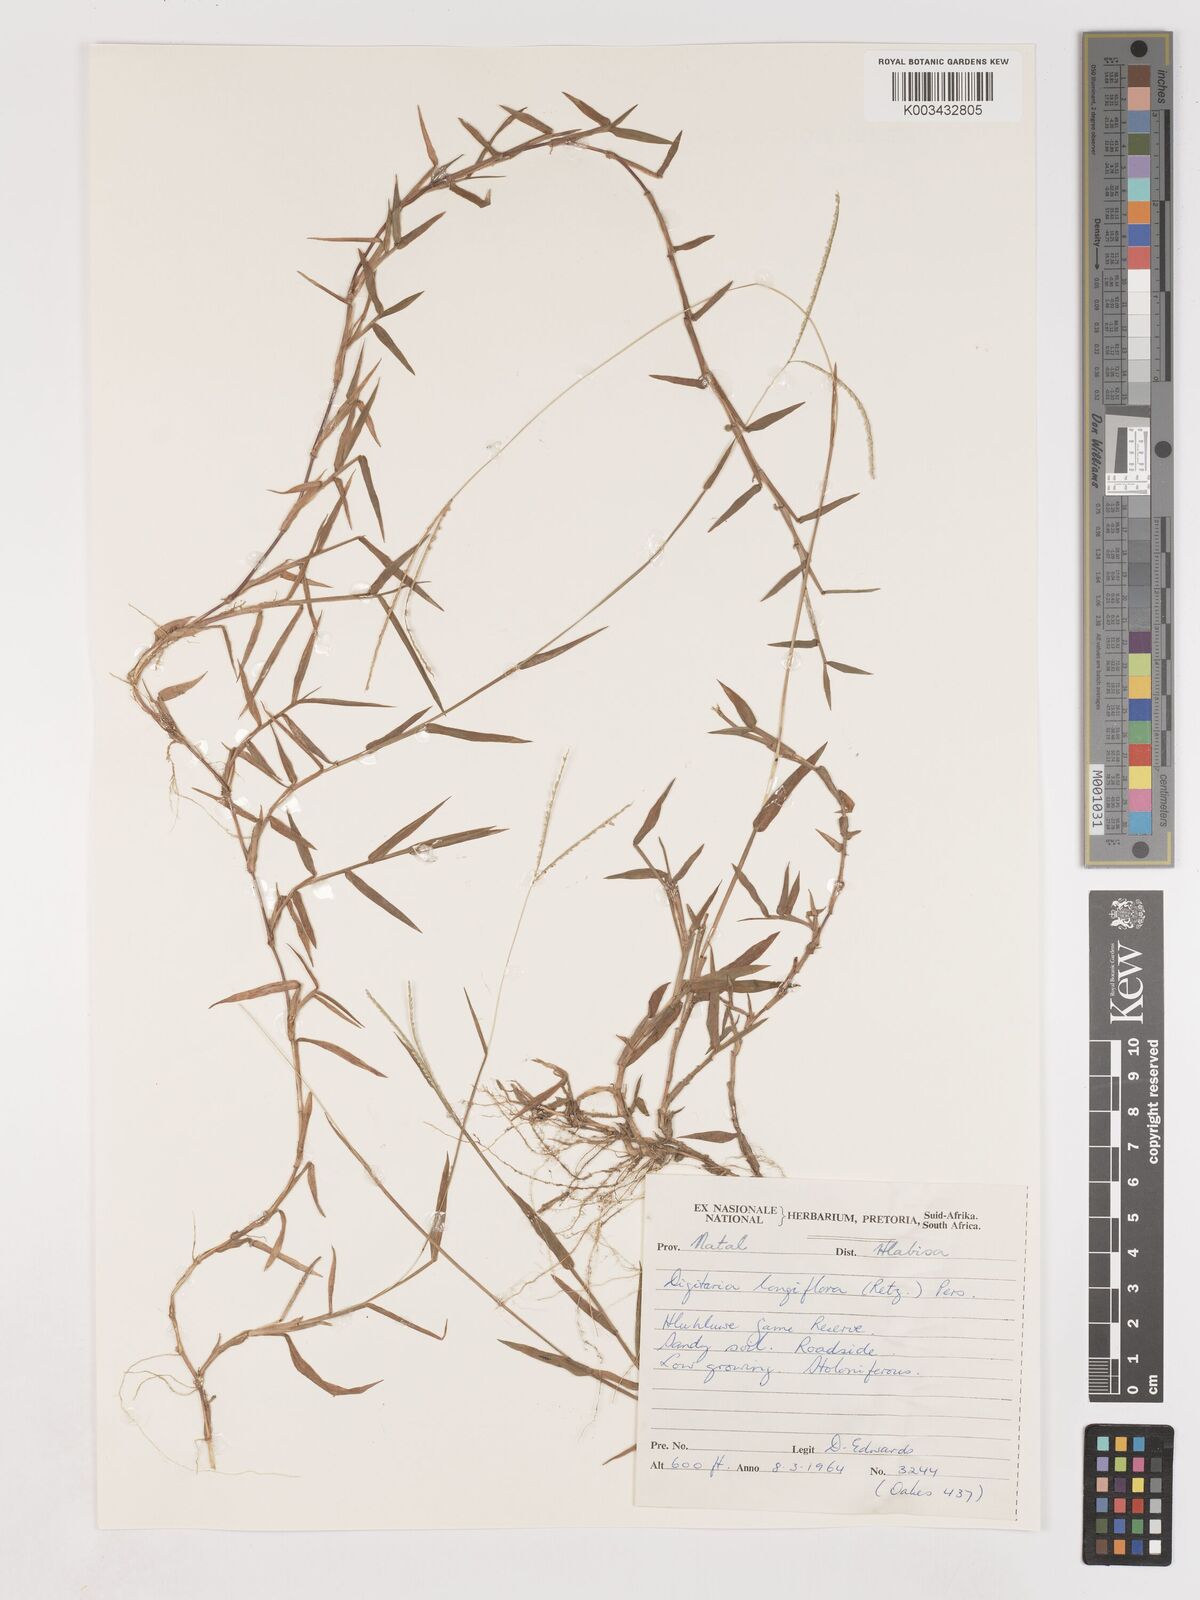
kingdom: Plantae
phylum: Tracheophyta
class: Liliopsida
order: Poales
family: Poaceae
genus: Digitaria
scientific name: Digitaria longiflora
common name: Wire crabgrass
